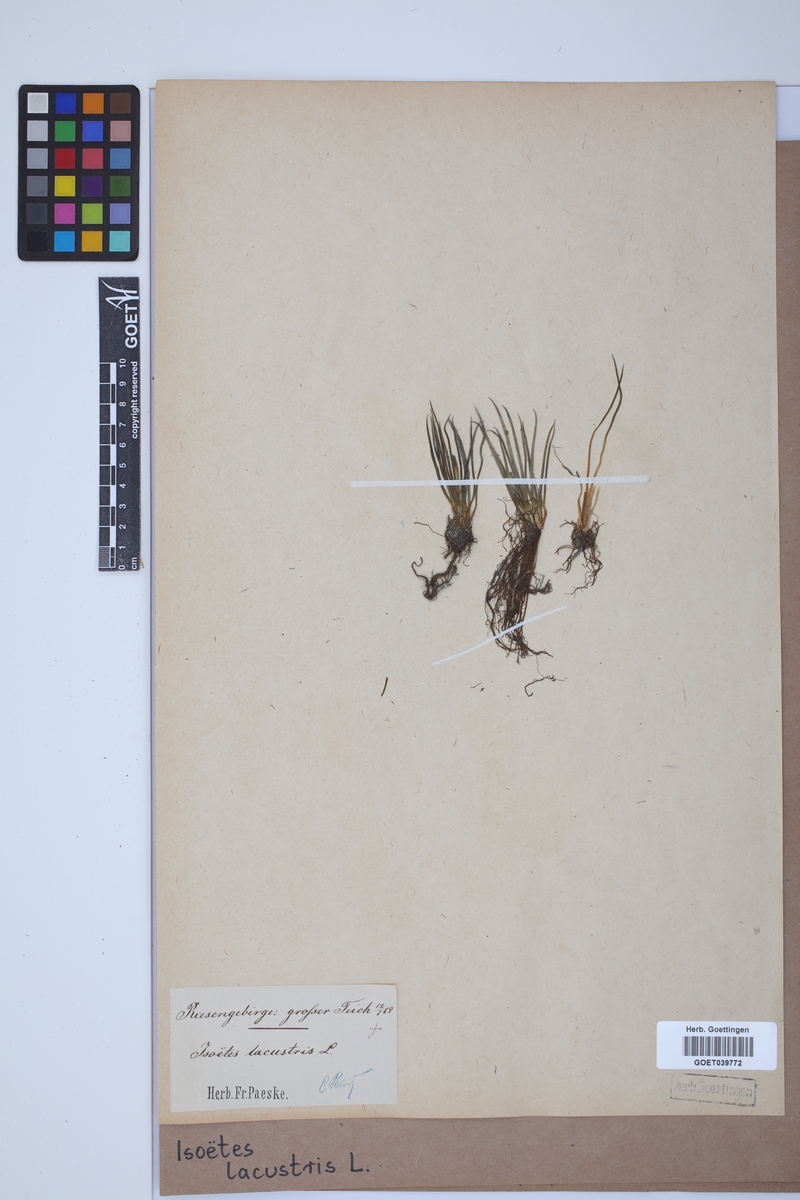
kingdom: Plantae
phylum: Tracheophyta
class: Lycopodiopsida
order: Isoetales
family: Isoetaceae
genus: Isoetes
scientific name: Isoetes lacustris
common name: Common quillwort
